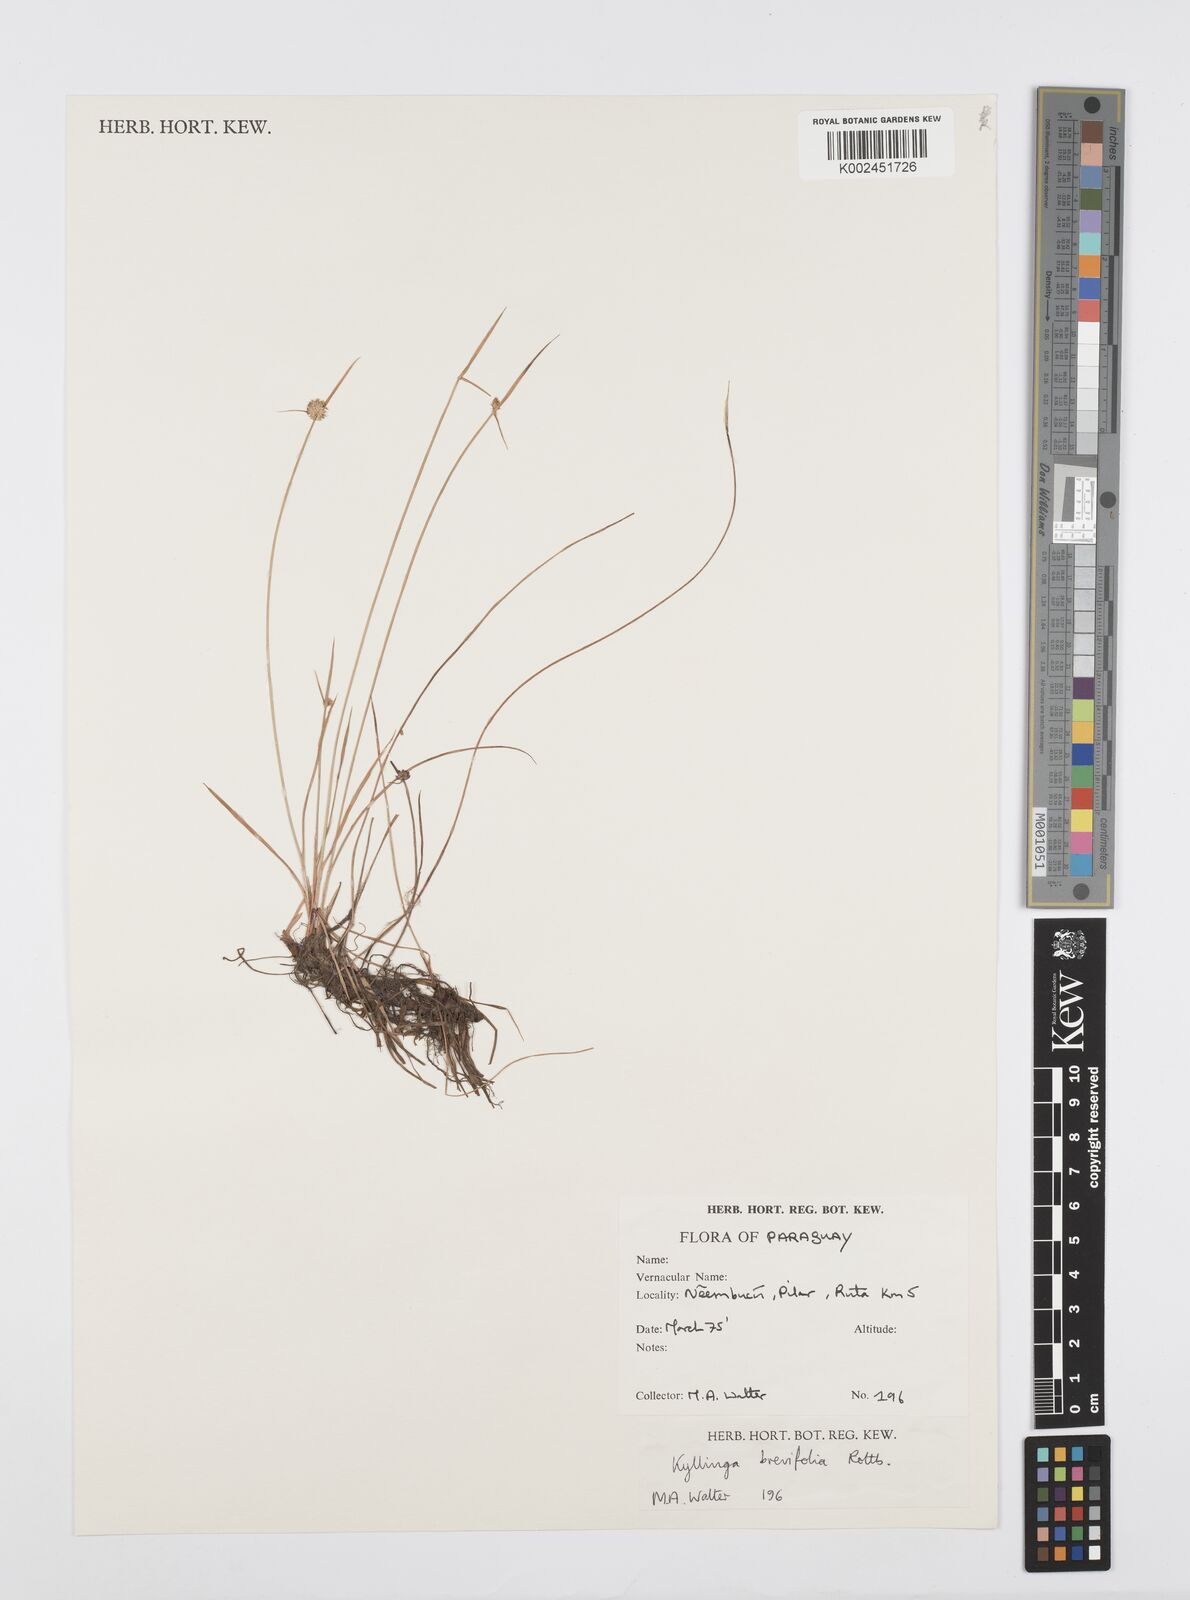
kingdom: Plantae
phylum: Tracheophyta
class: Liliopsida
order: Poales
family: Cyperaceae
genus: Cyperus
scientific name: Cyperus brevifolius
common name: Globe kyllinga
